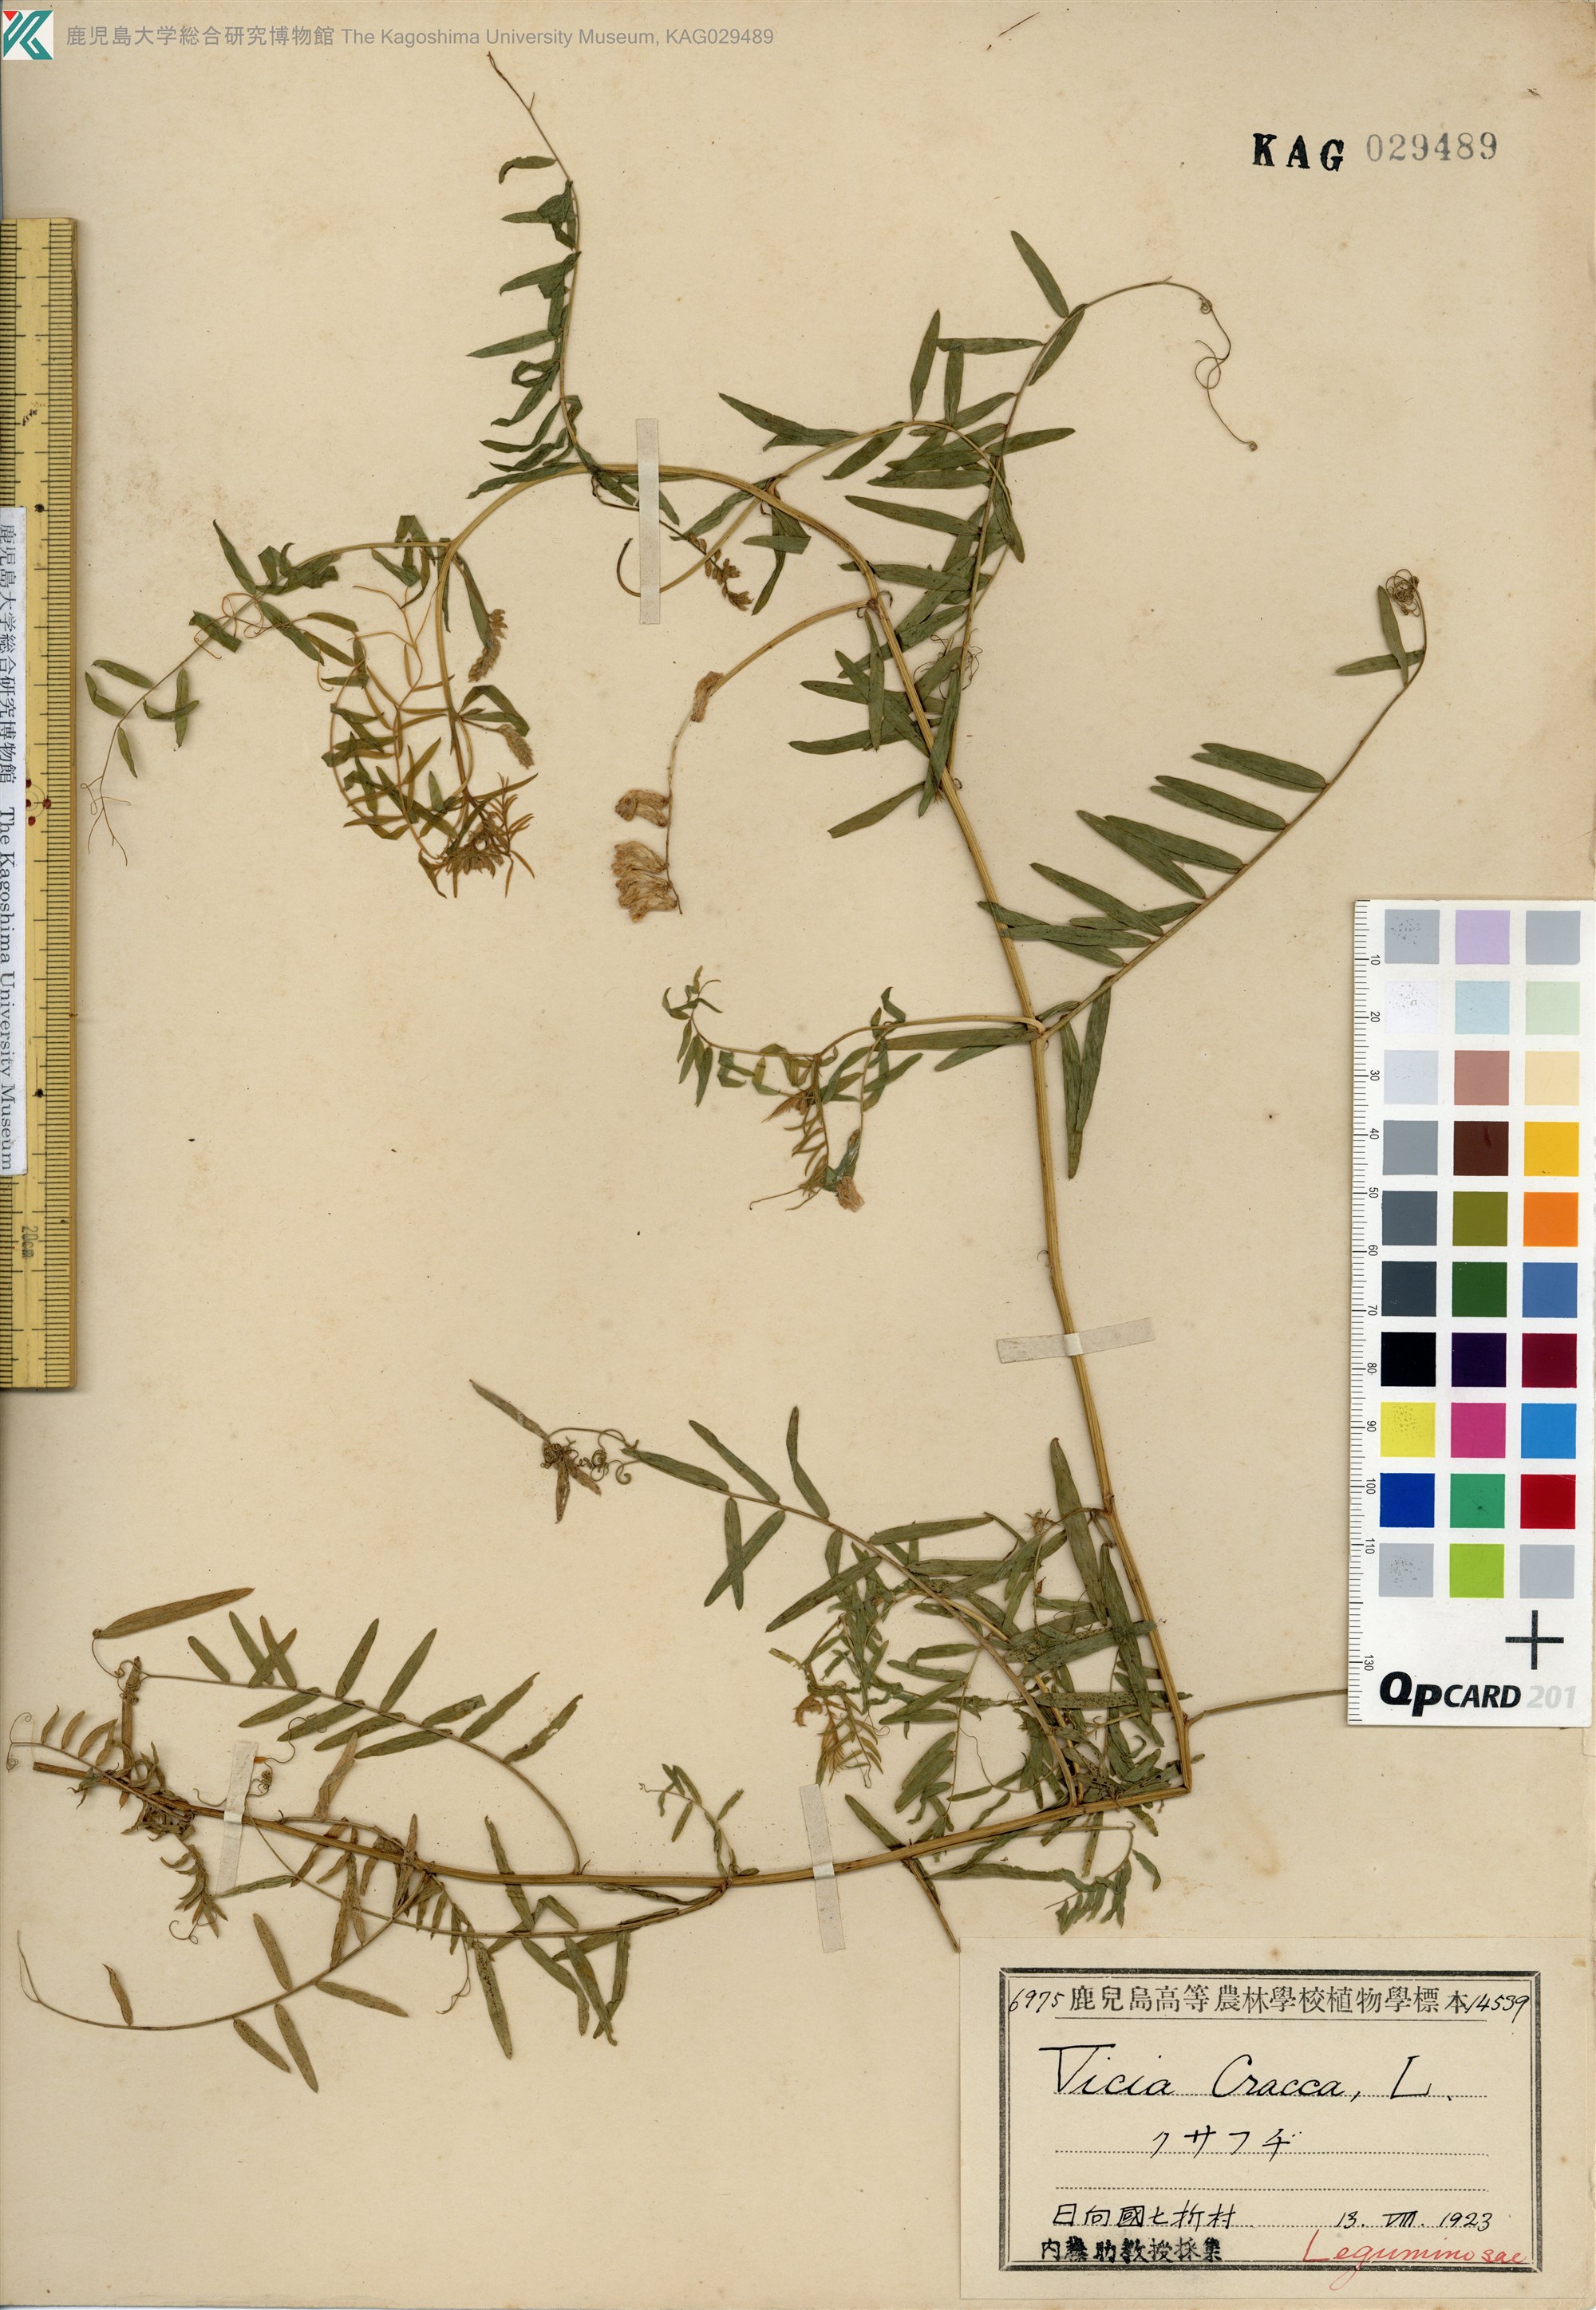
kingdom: Plantae
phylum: Tracheophyta
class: Magnoliopsida
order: Fabales
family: Fabaceae
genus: Vicia
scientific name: Vicia cracca
